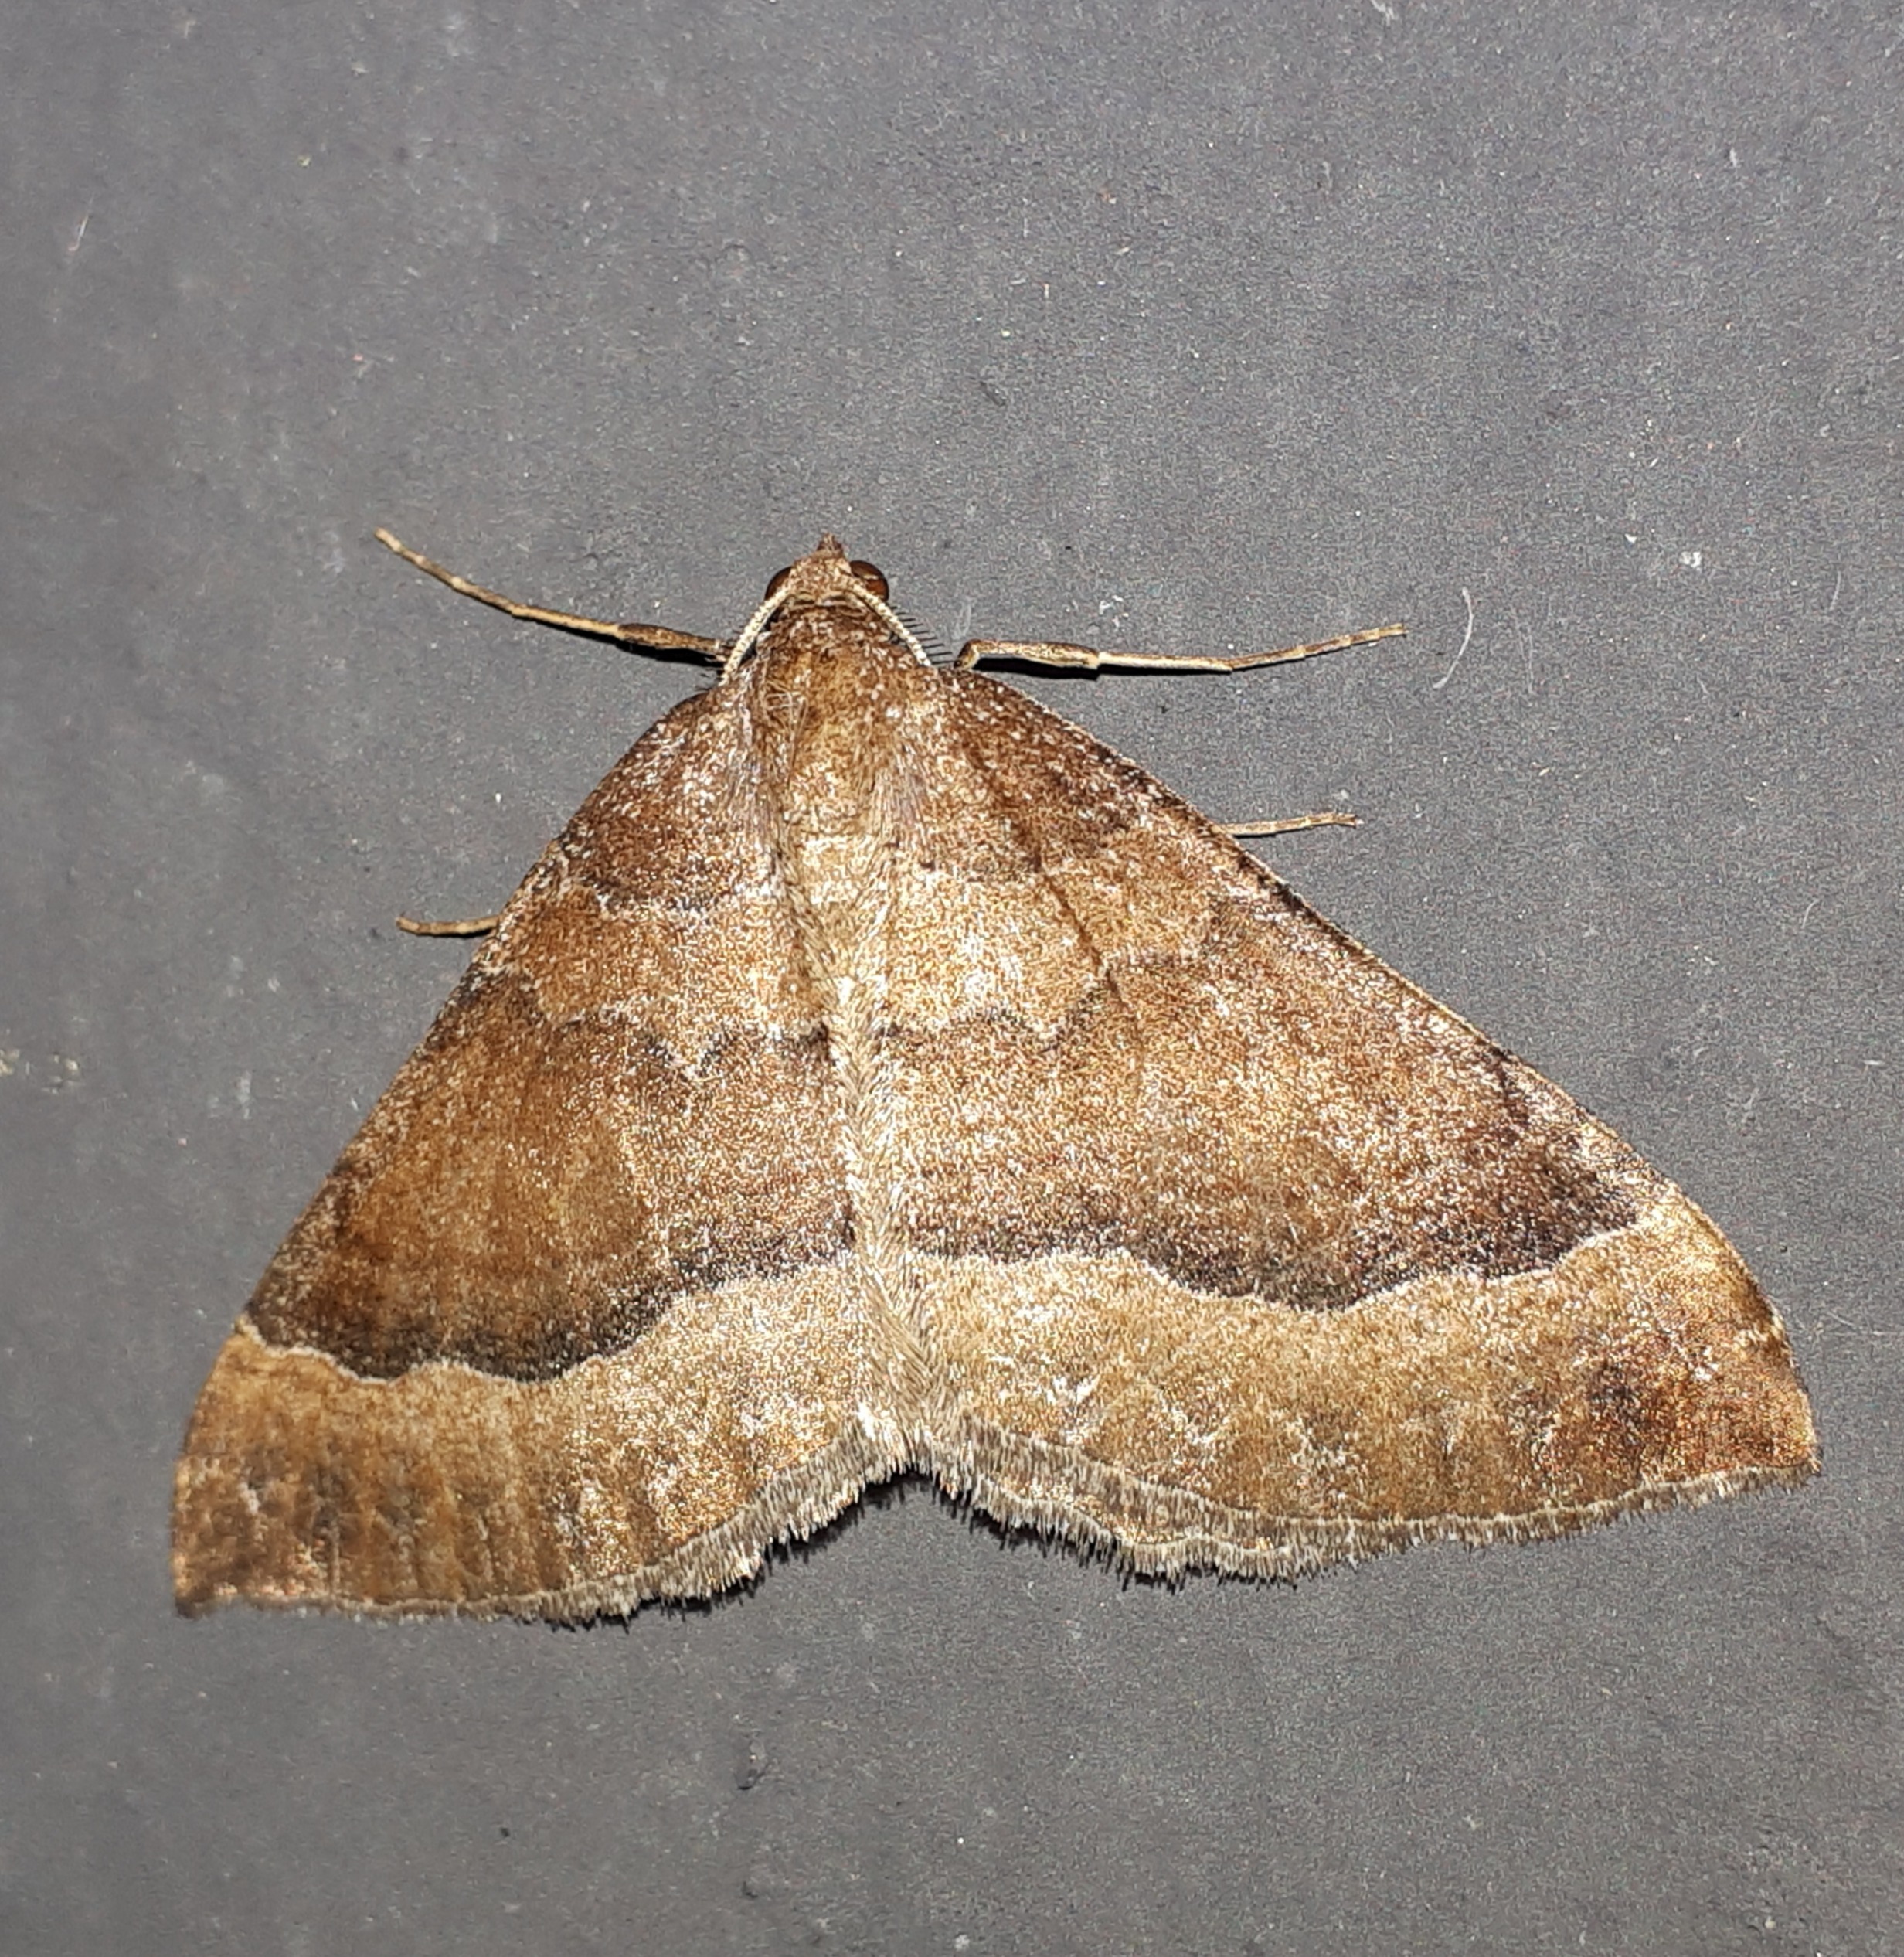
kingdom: Animalia
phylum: Arthropoda
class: Insecta
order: Lepidoptera
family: Geometridae
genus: Larentia
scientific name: Larentia clavaria
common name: Katostmåler
